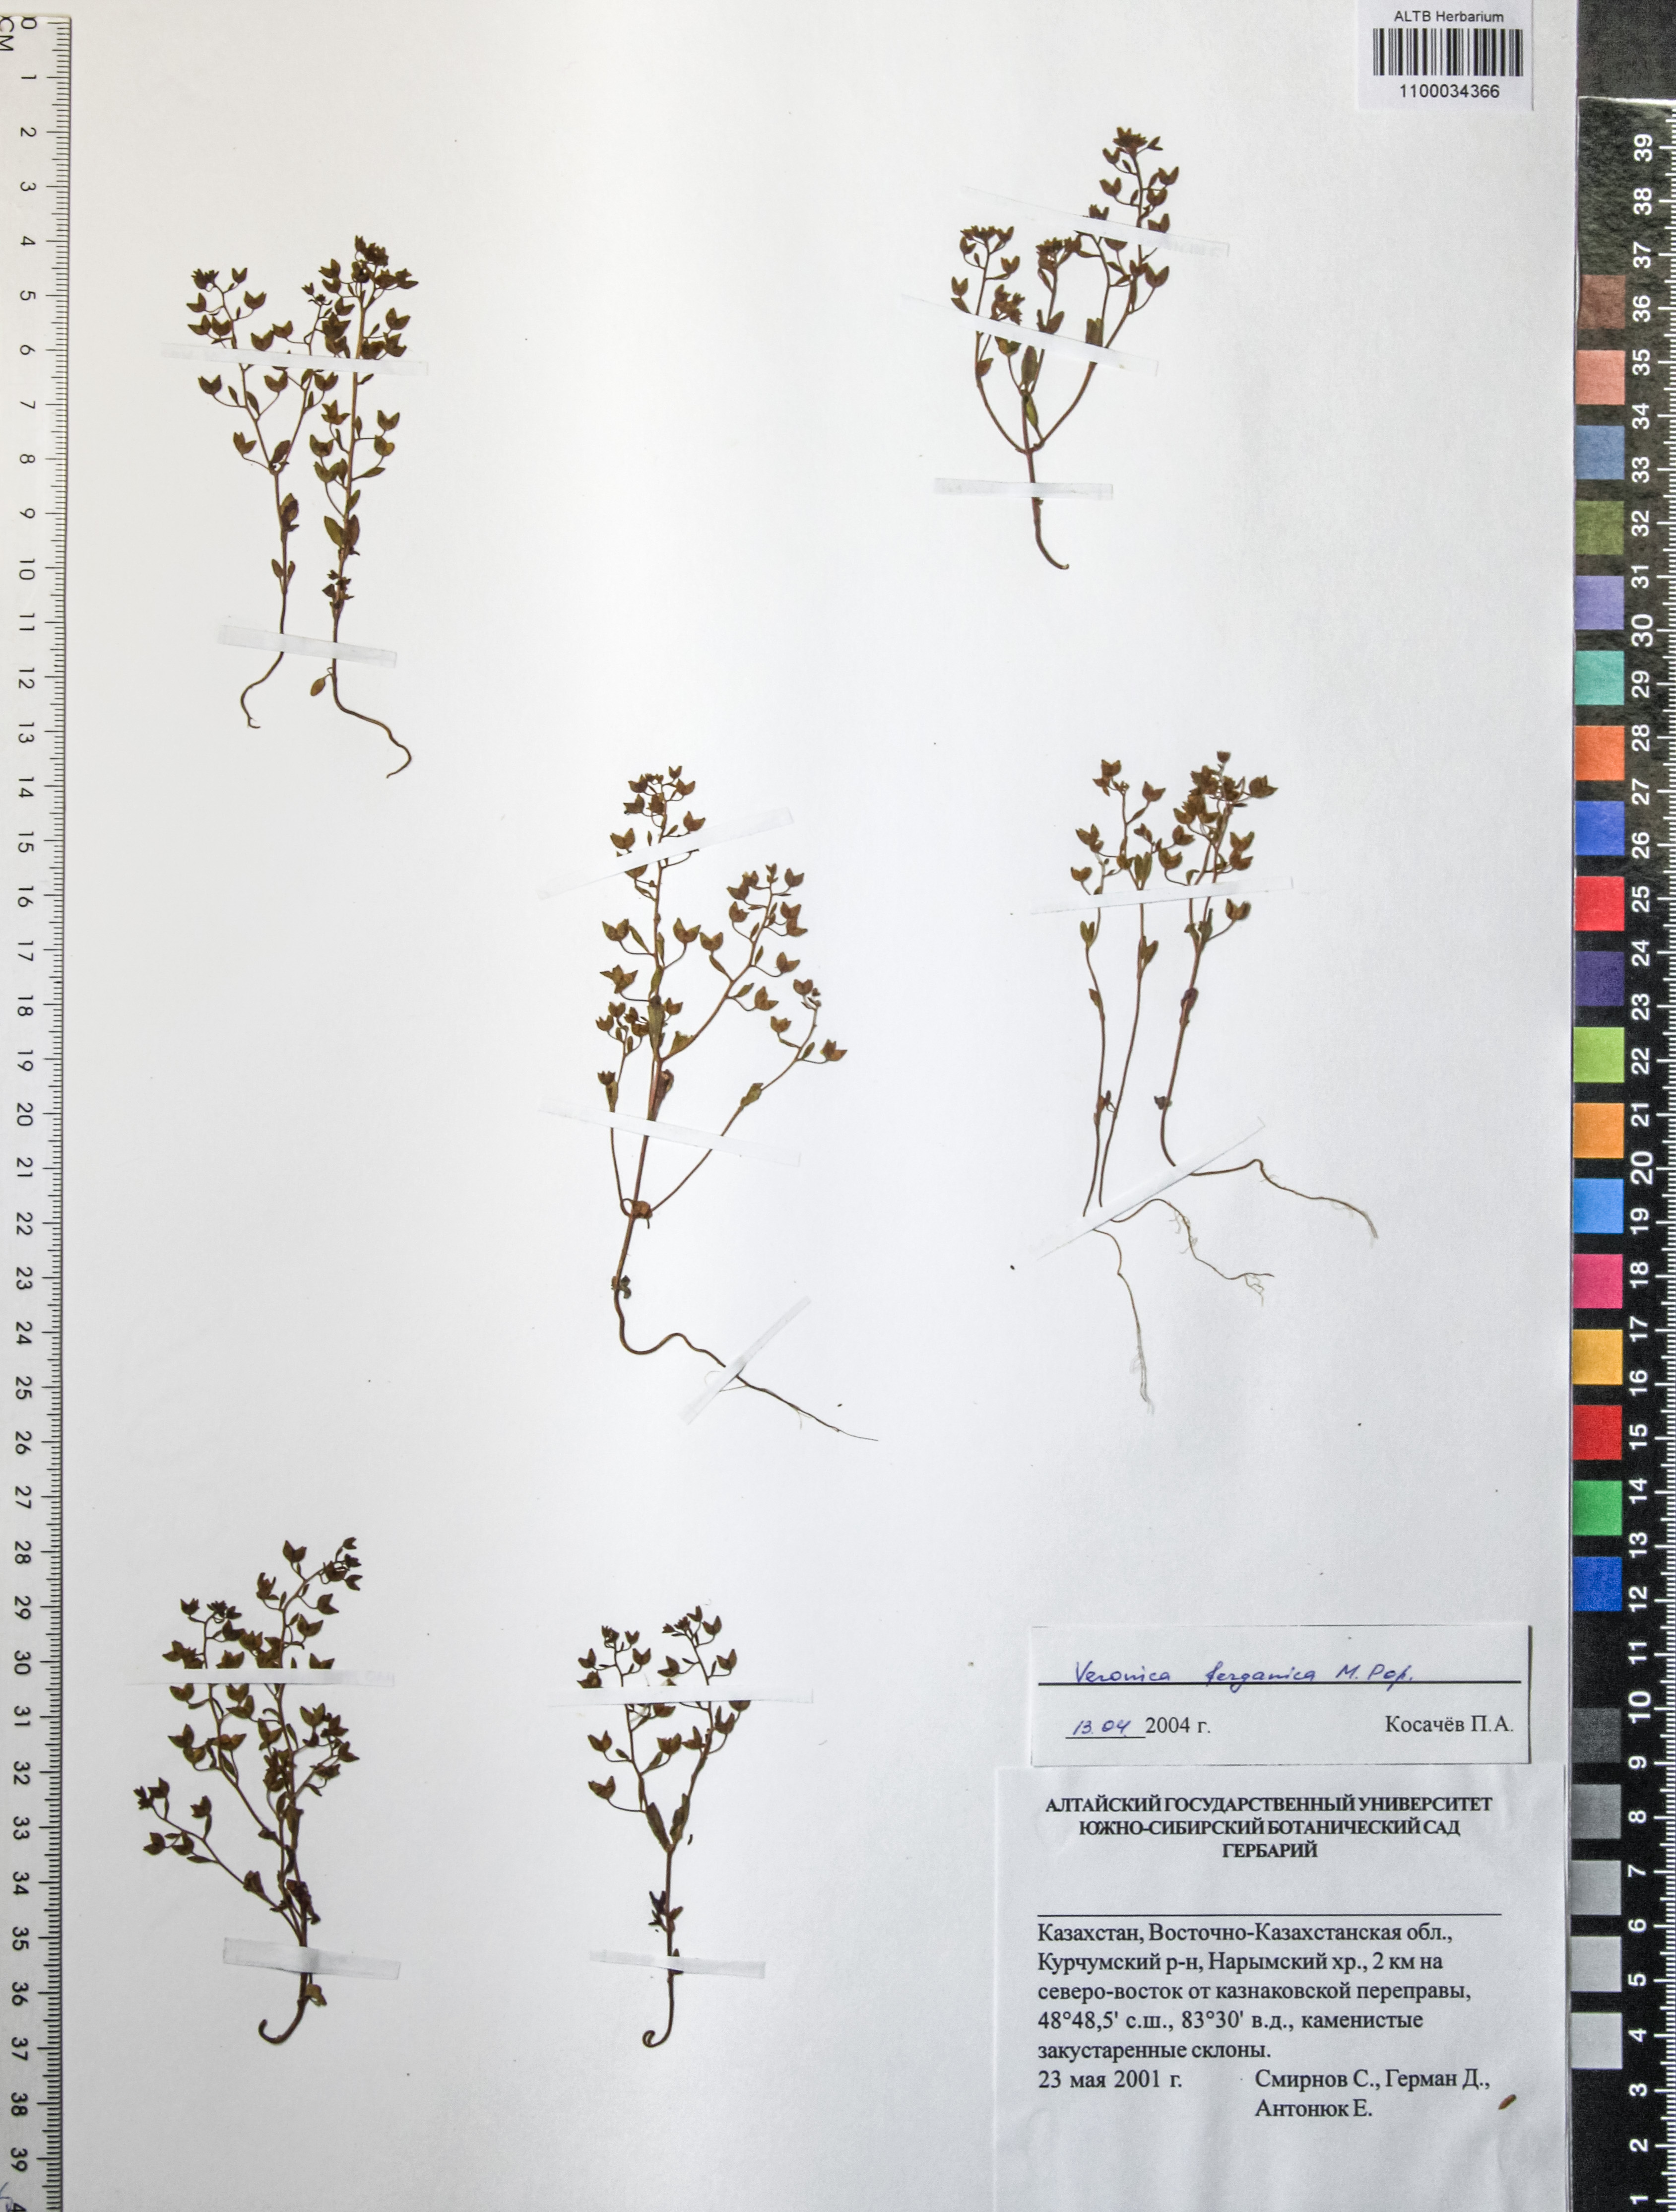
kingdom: Plantae
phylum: Tracheophyta
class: Magnoliopsida
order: Lamiales
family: Plantaginaceae
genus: Veronica
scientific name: Veronica ferganica
